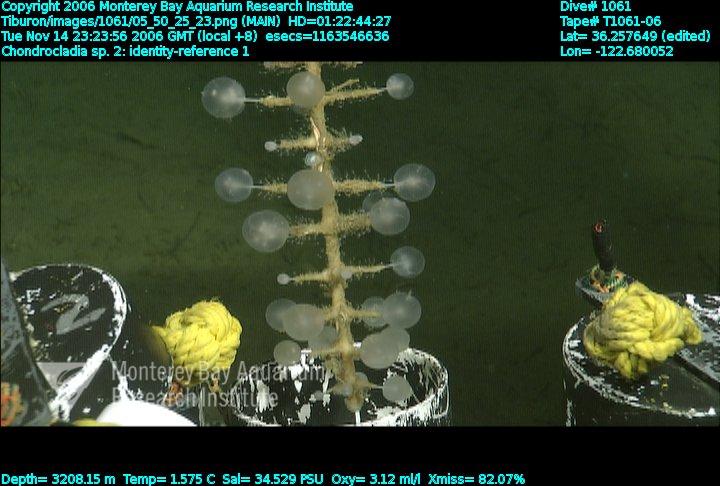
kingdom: Animalia
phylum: Porifera
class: Demospongiae
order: Poecilosclerida
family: Cladorhizidae
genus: Chondrocladia
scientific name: Chondrocladia
